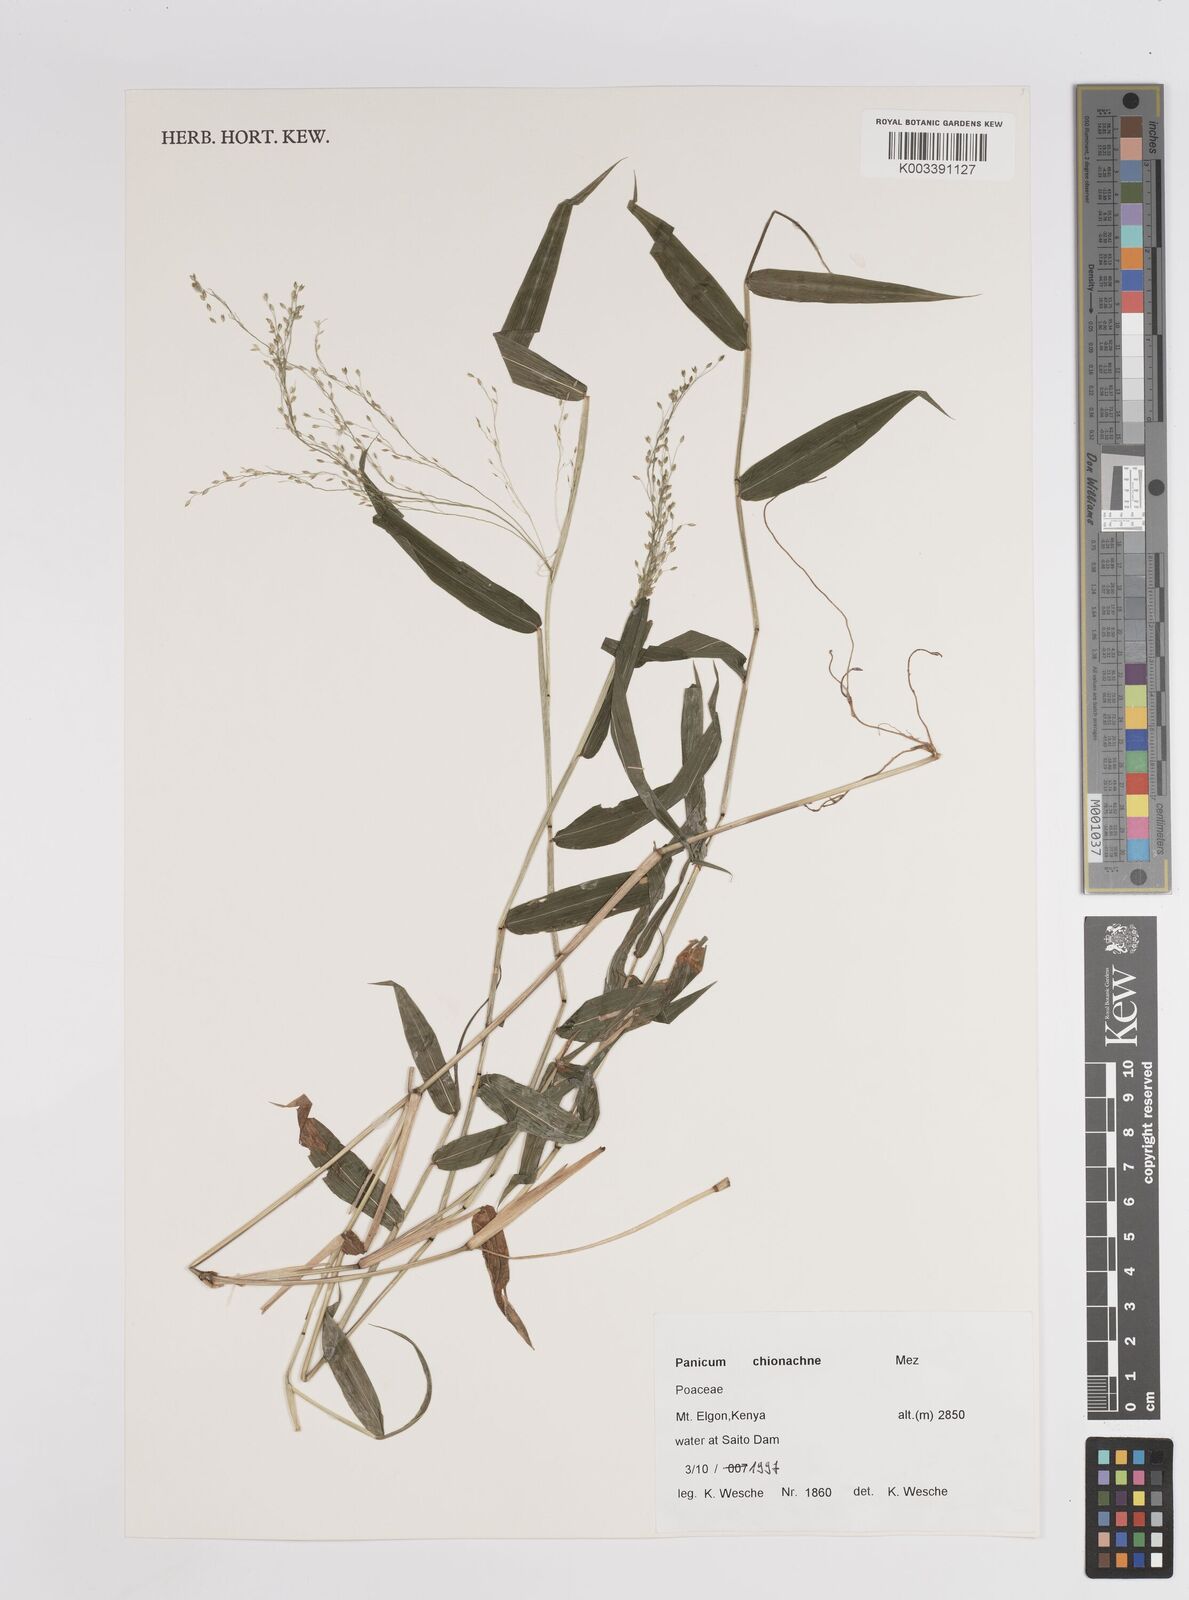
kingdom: Plantae
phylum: Tracheophyta
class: Liliopsida
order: Poales
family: Poaceae
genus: Panicum
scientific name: Panicum chionachne
